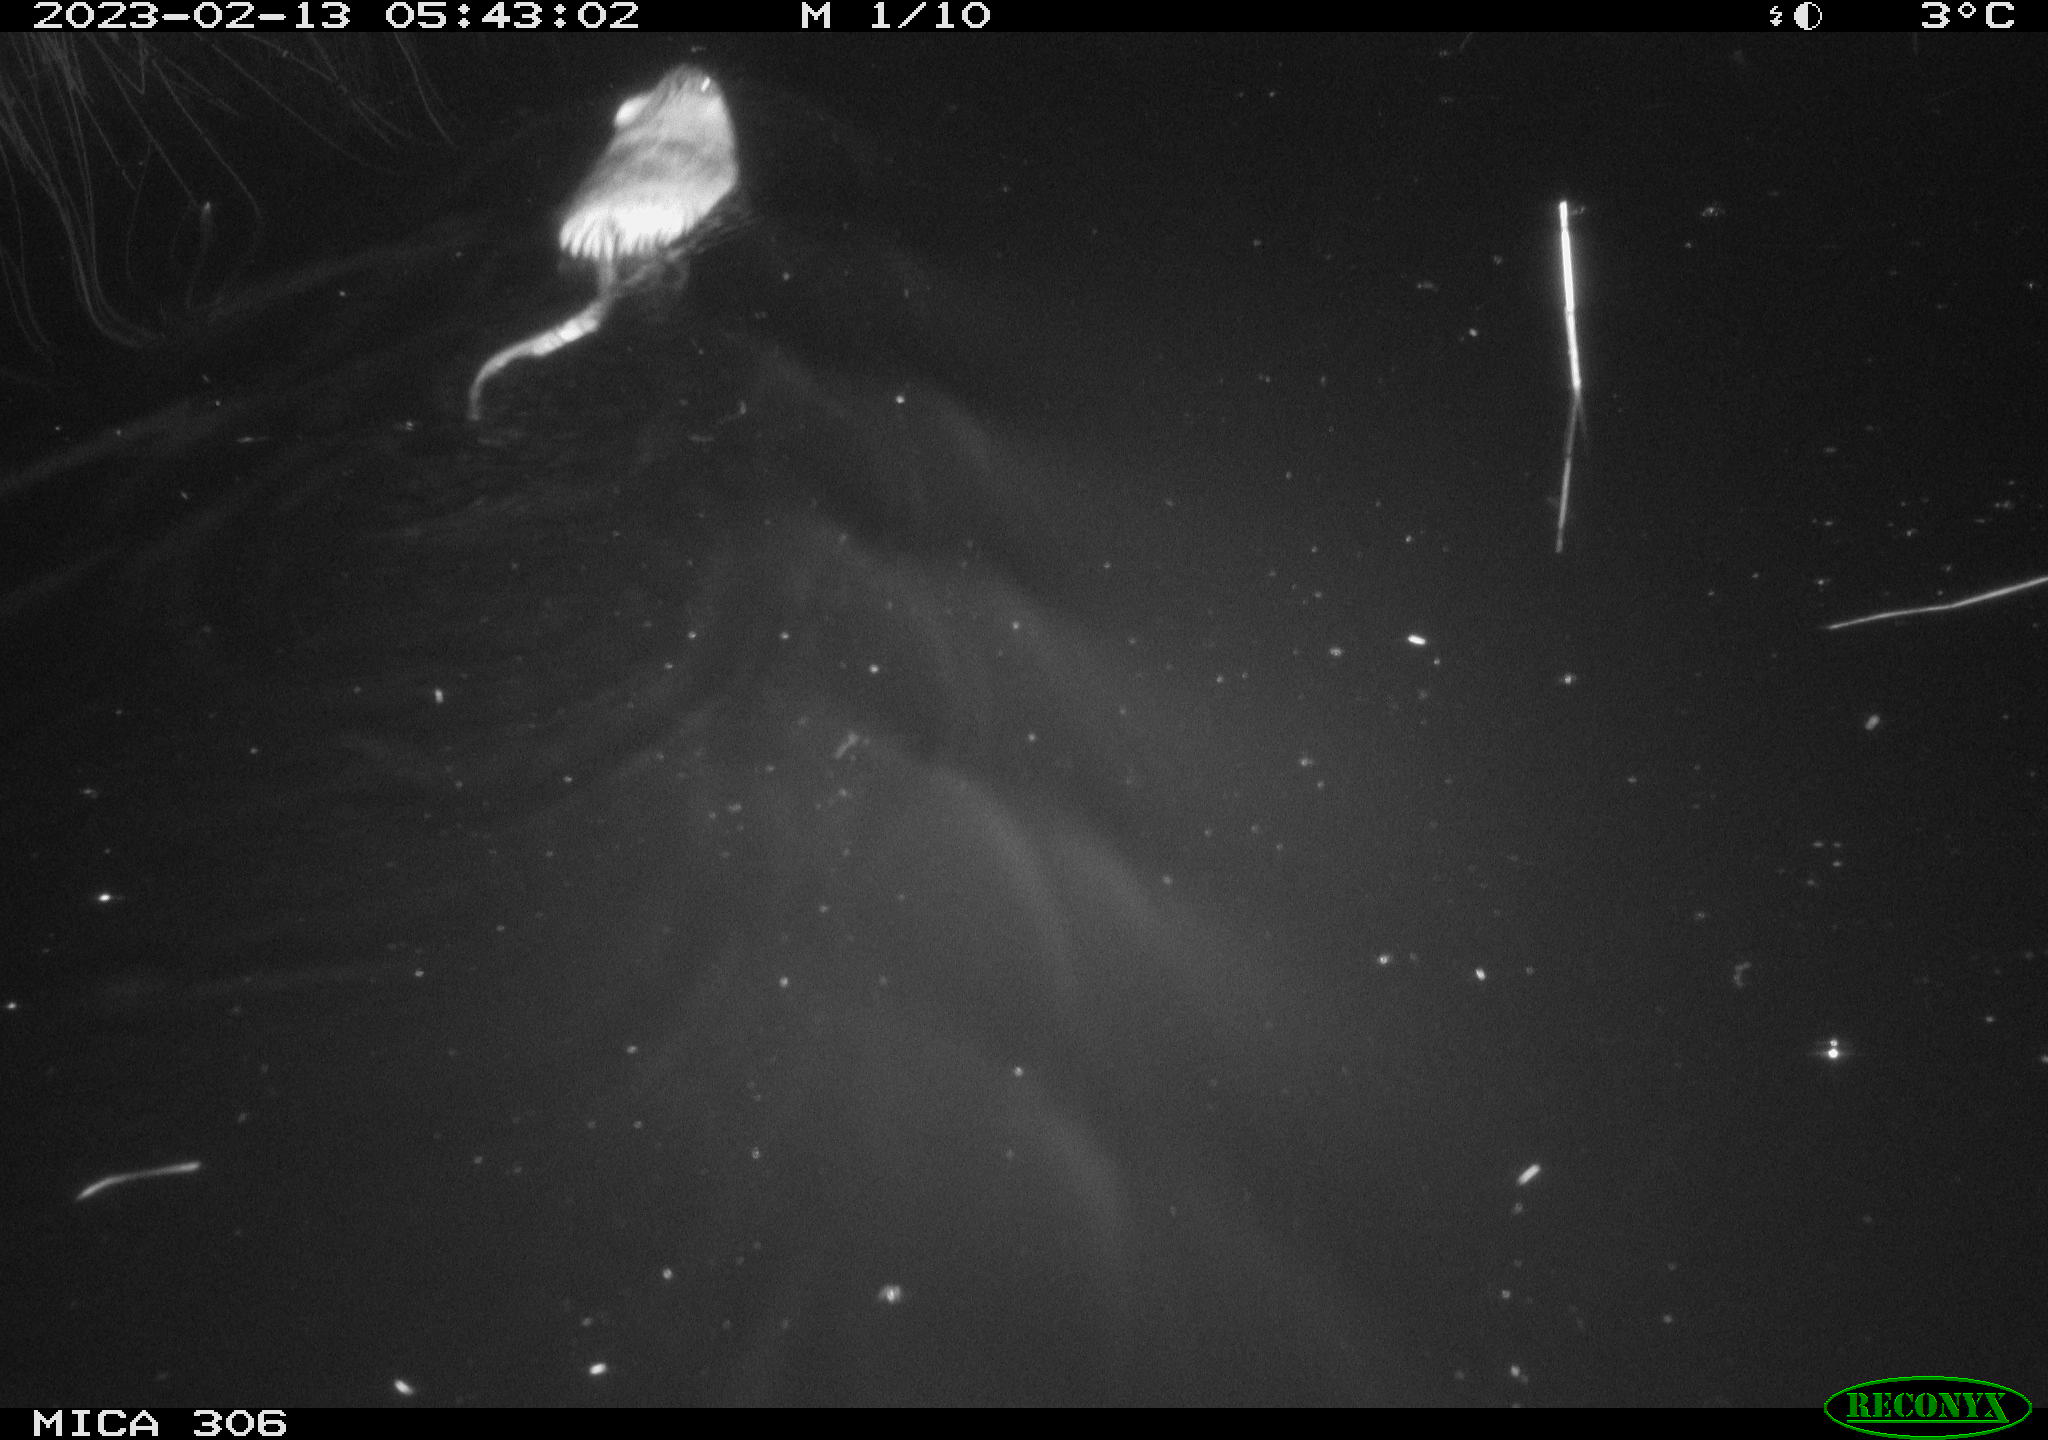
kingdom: Animalia
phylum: Chordata
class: Mammalia
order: Rodentia
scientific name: Rodentia
